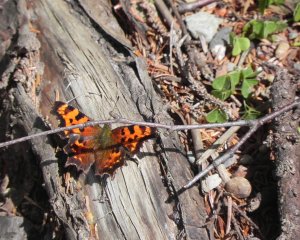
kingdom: Animalia
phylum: Arthropoda
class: Insecta
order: Lepidoptera
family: Nymphalidae
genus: Polygonia
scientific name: Polygonia
